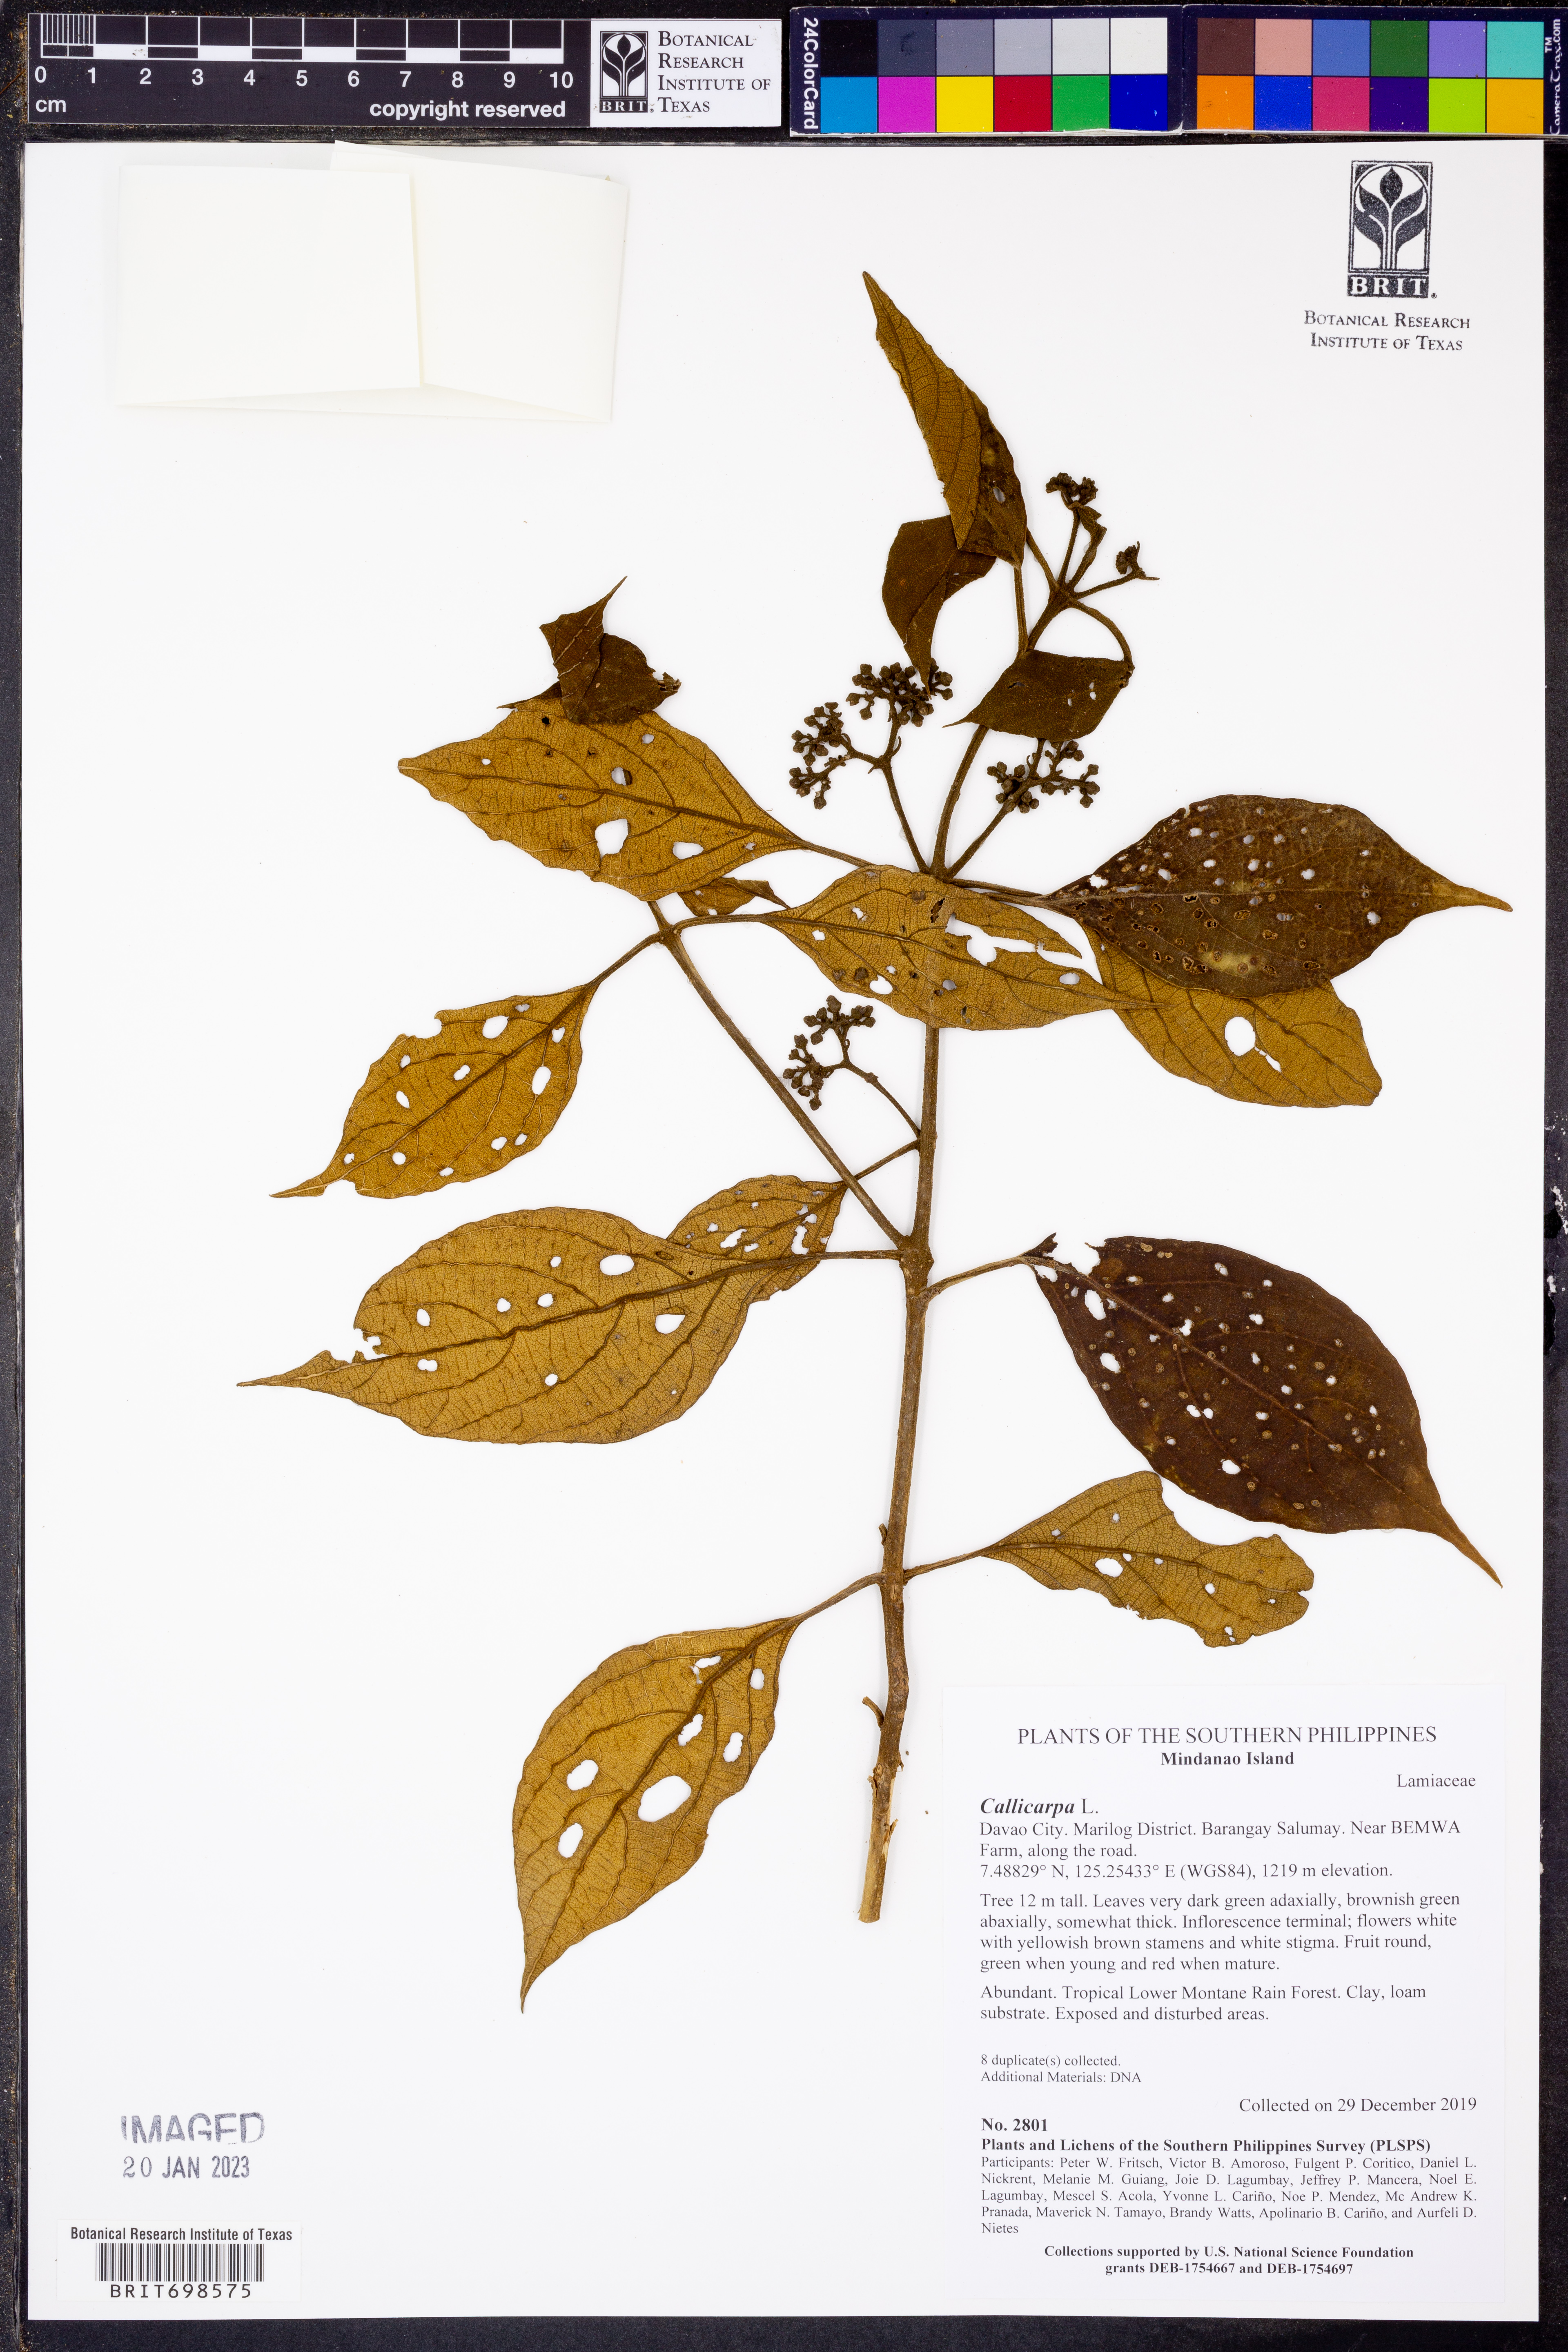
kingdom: Plantae
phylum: Tracheophyta
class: Magnoliopsida
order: Lamiales
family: Lamiaceae
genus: Callicarpa
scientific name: Callicarpa
